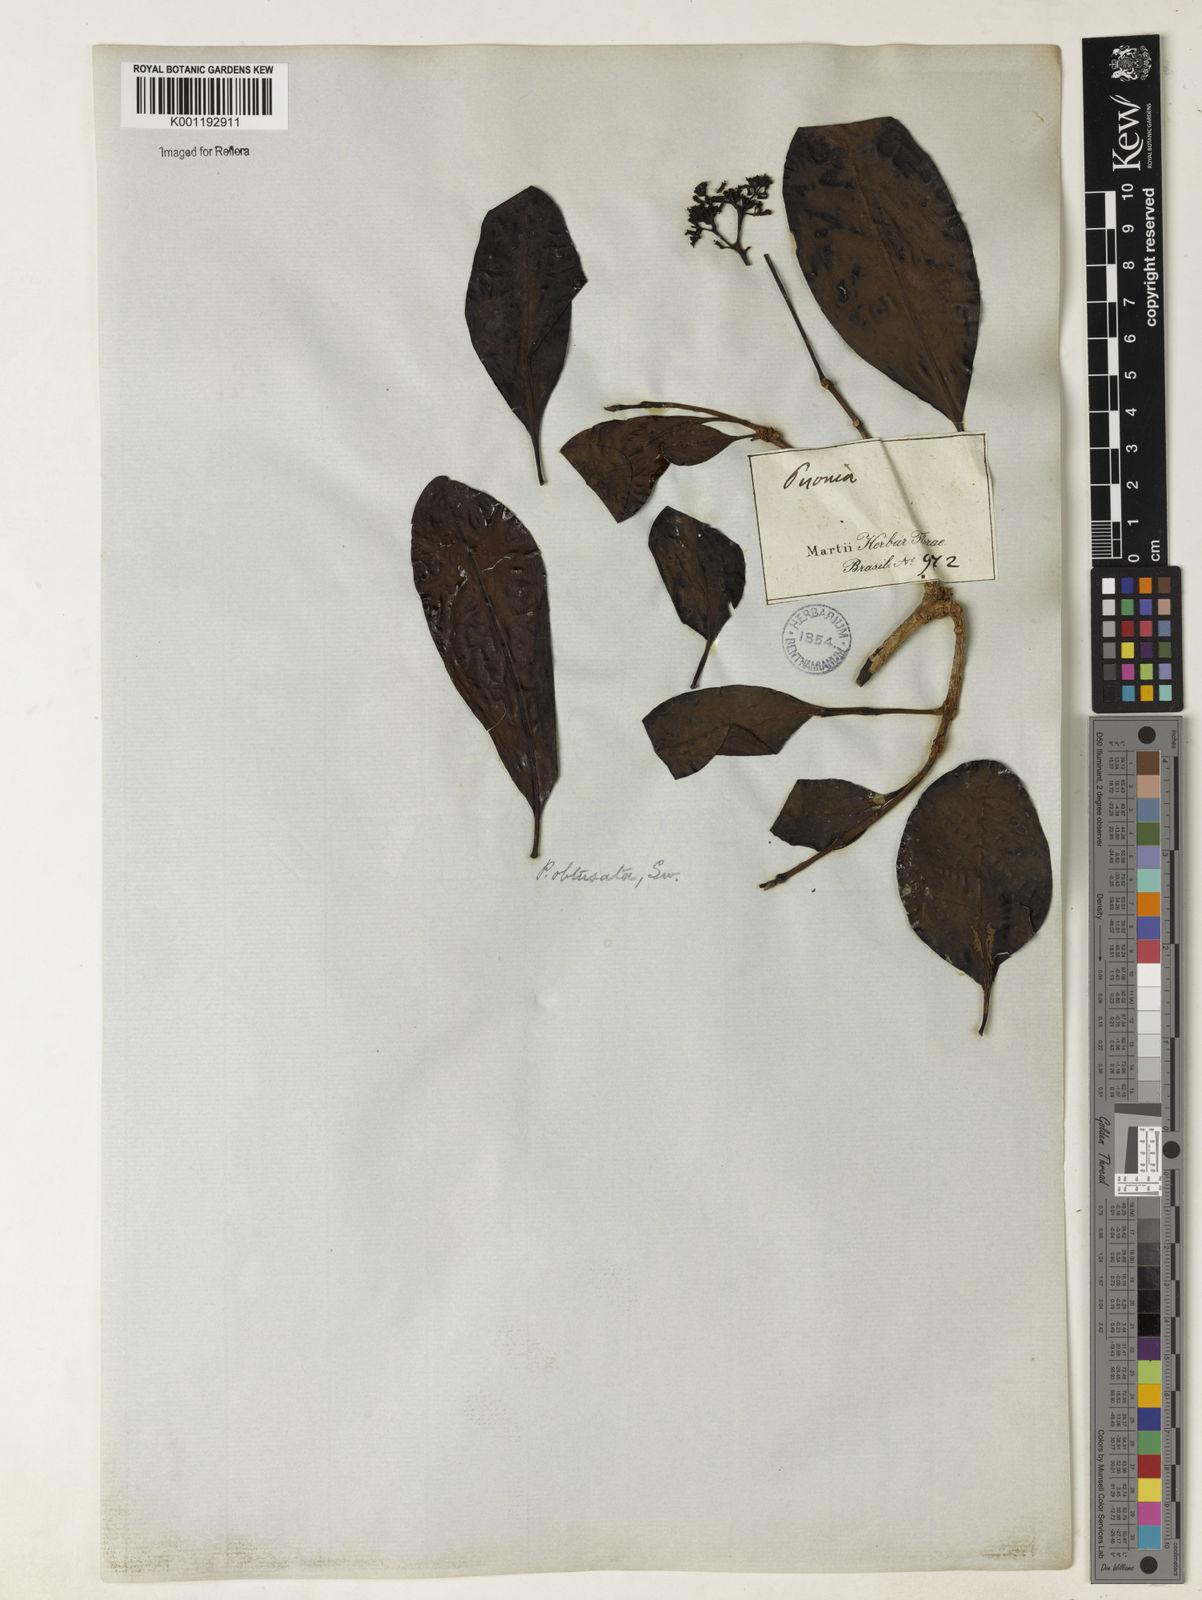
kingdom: Plantae
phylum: Tracheophyta
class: Magnoliopsida
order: Caryophyllales
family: Nyctaginaceae
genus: Guapira
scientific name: Guapira obtusata
